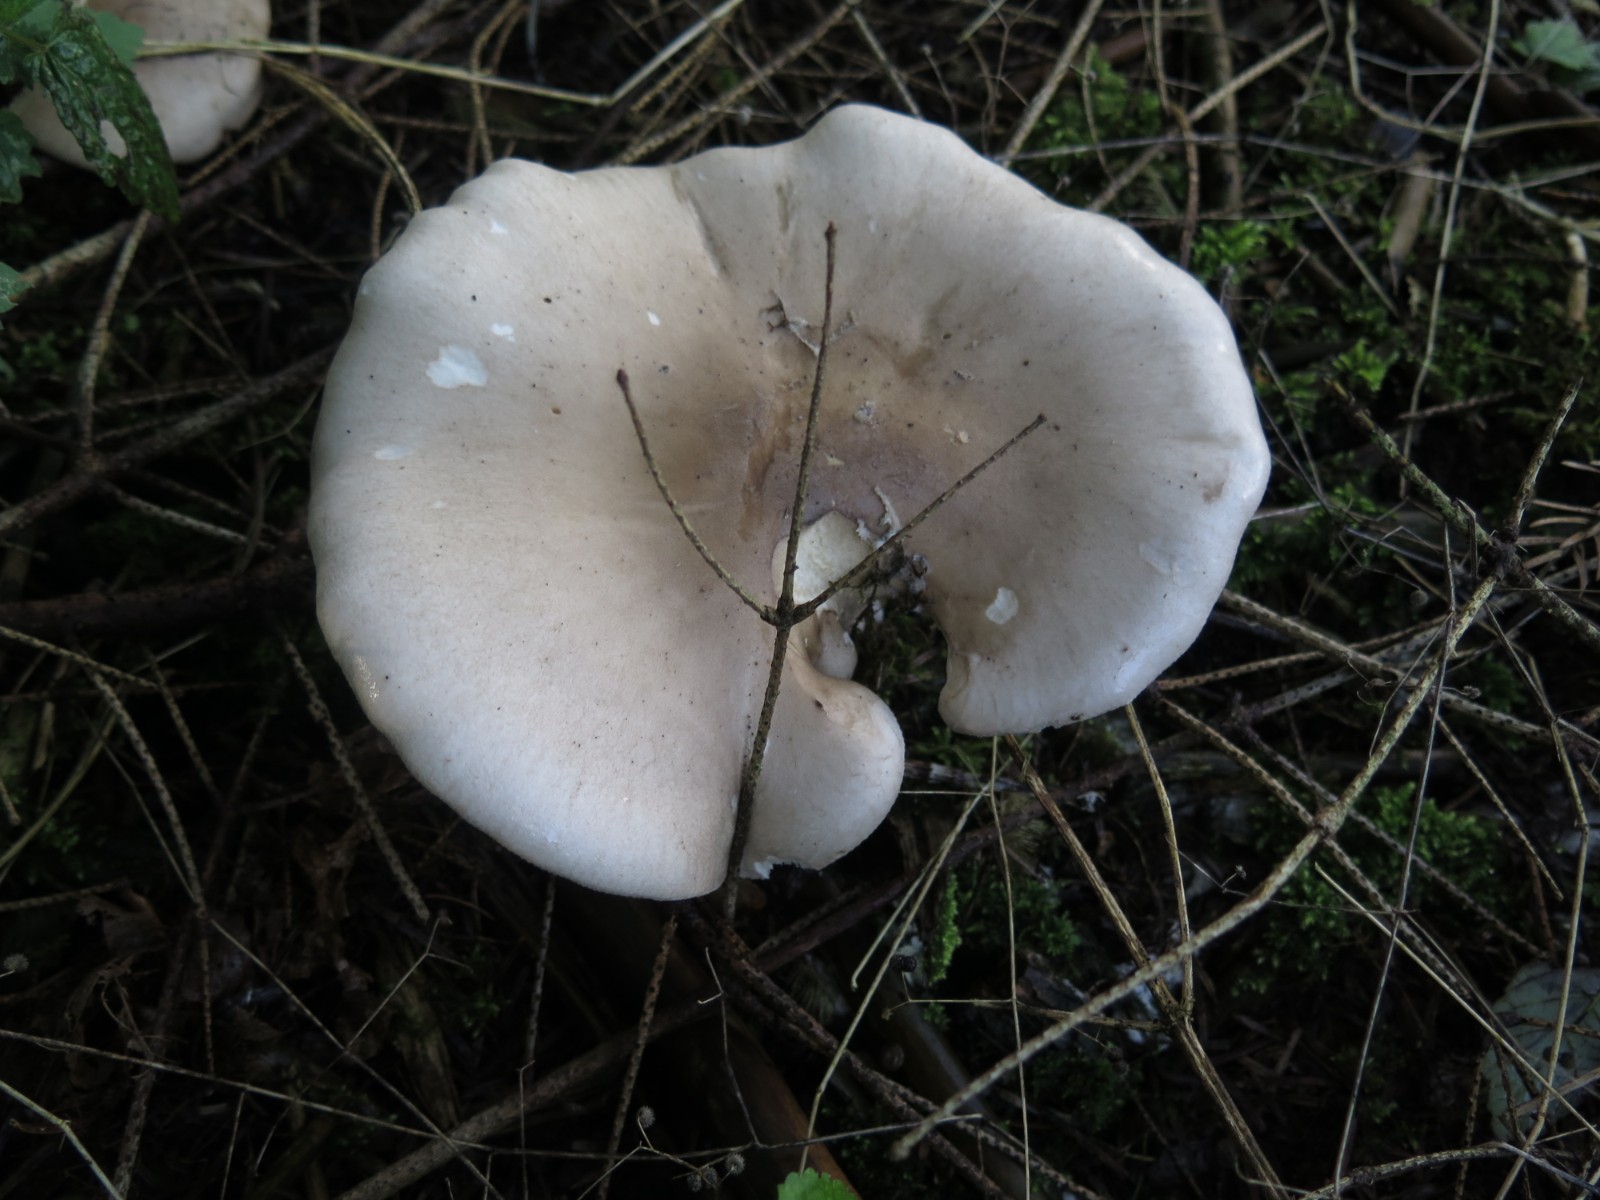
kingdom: Fungi
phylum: Basidiomycota
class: Agaricomycetes
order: Agaricales
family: Tricholomataceae
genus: Clitocybe
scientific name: Clitocybe nebularis
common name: tåge-tragthat
